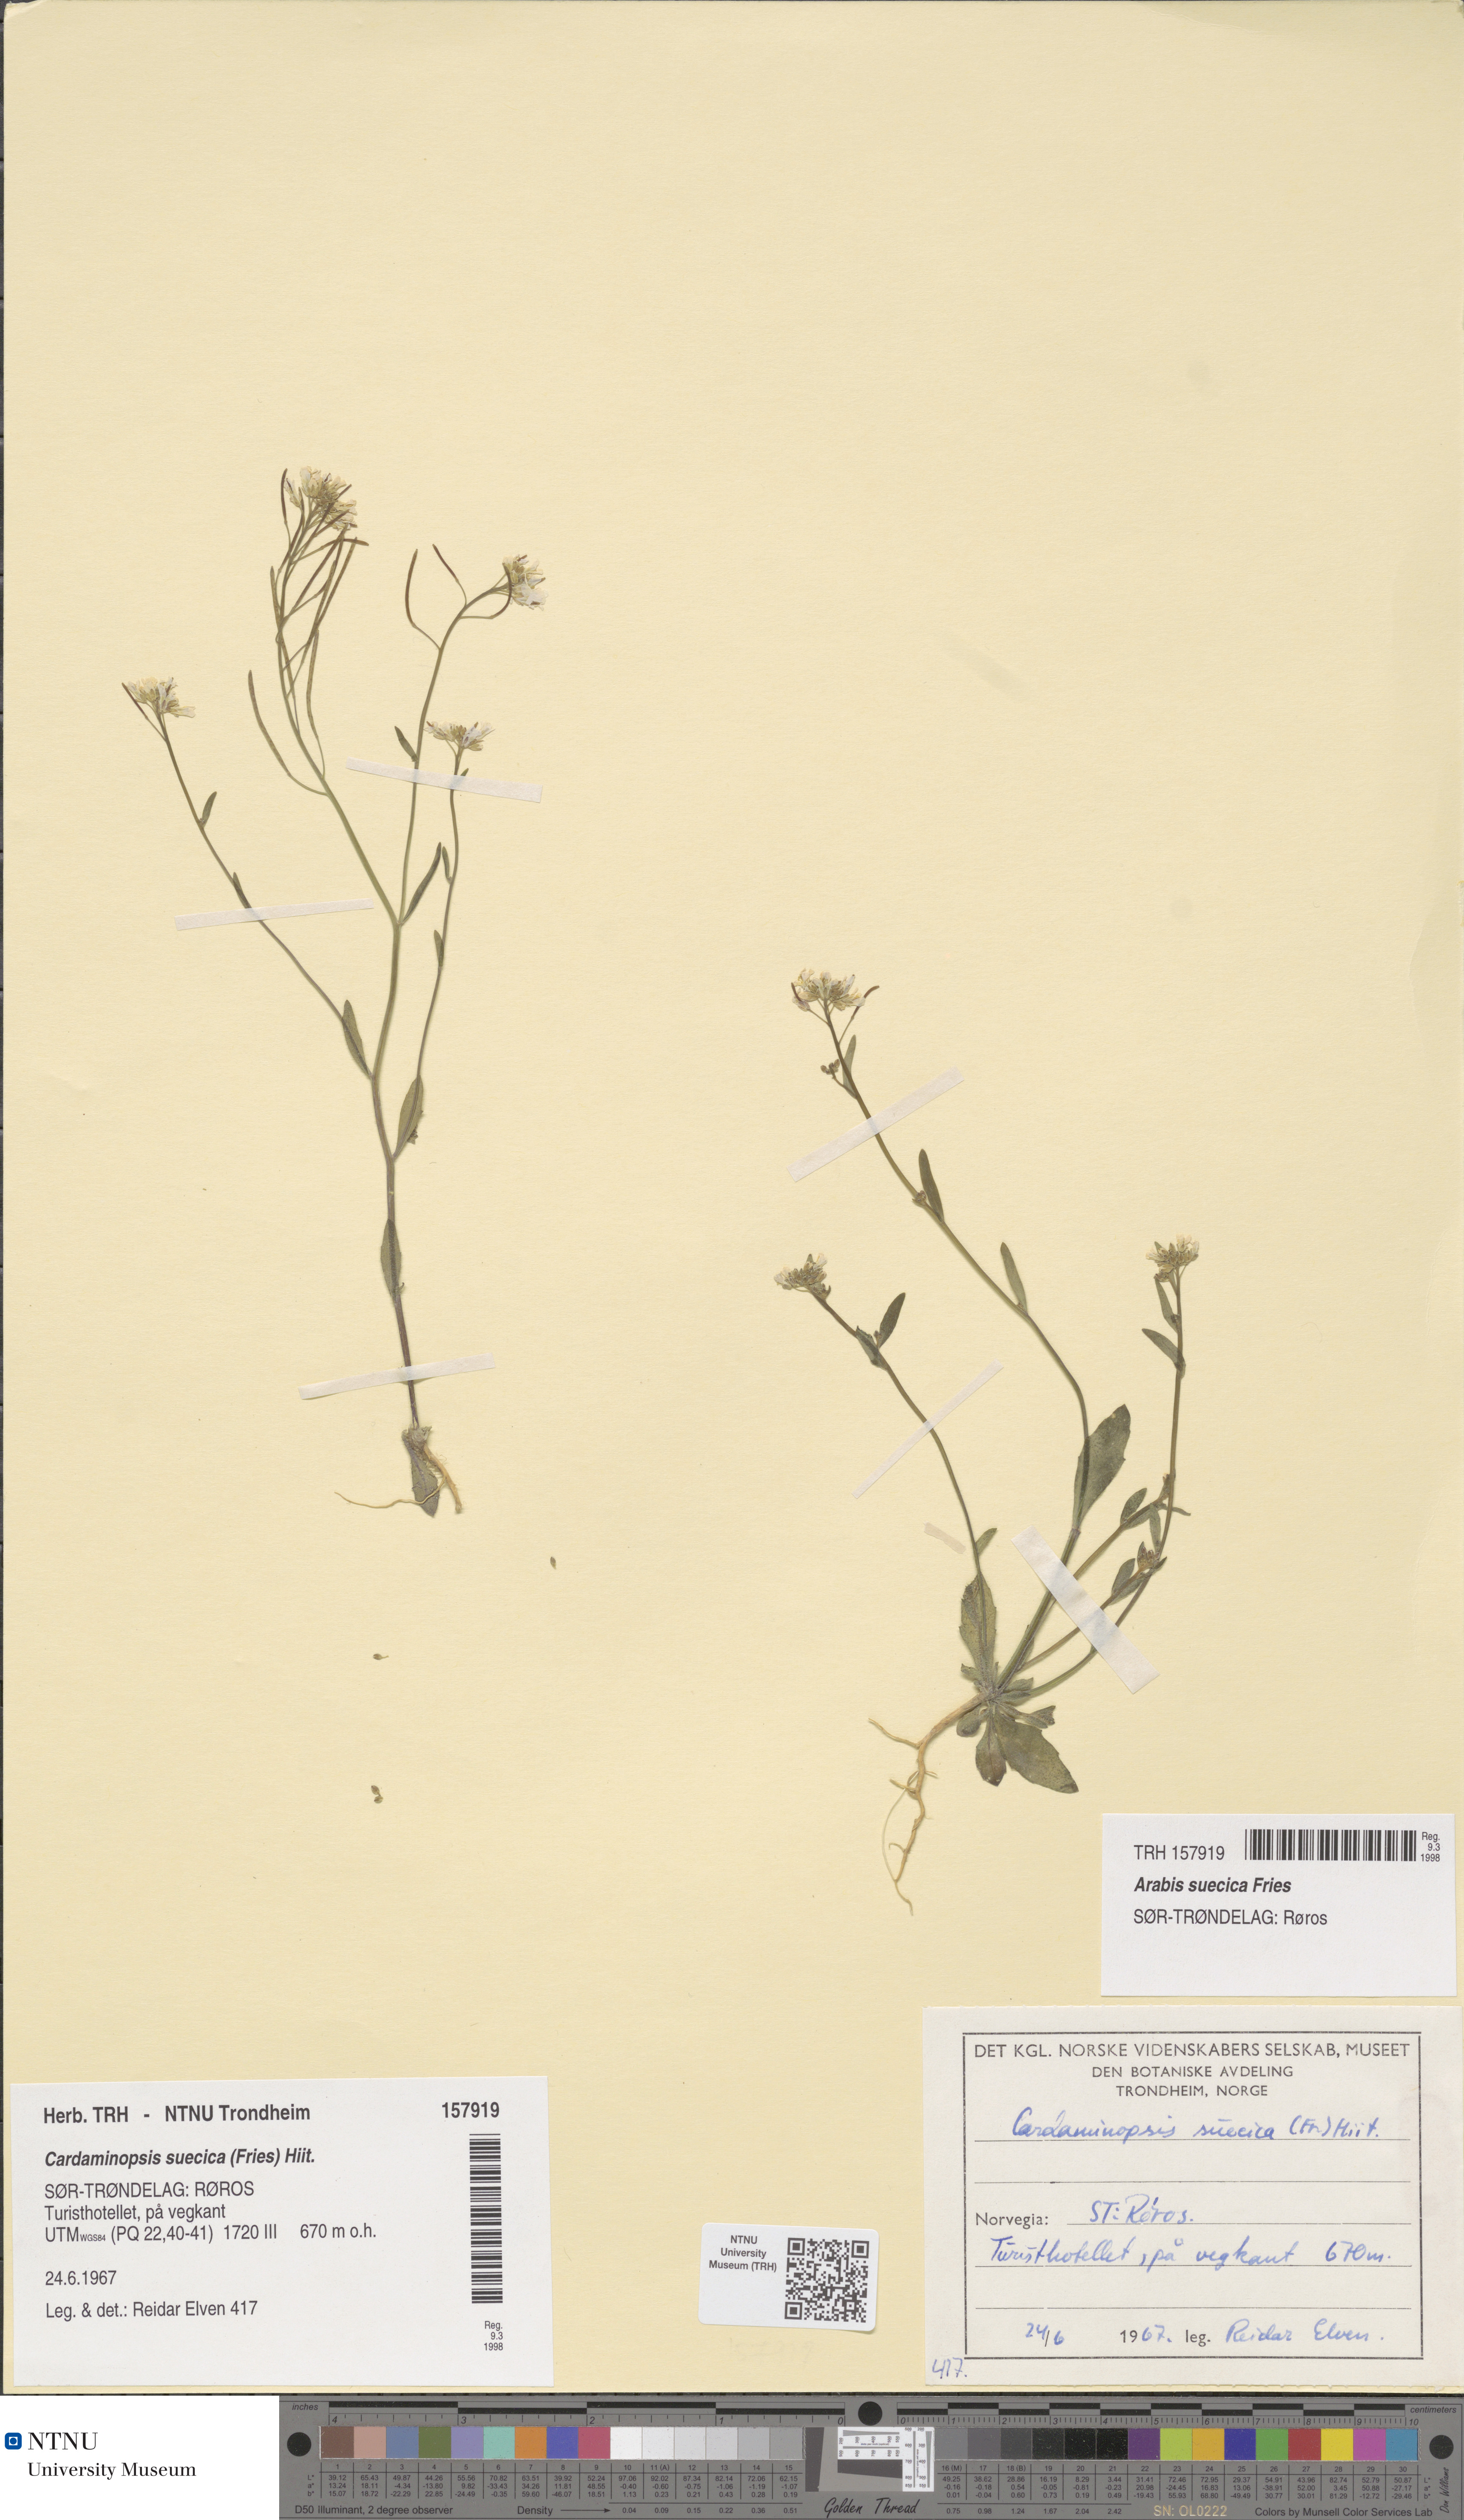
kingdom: Plantae
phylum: Tracheophyta
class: Magnoliopsida
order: Brassicales
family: Brassicaceae
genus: Arabidopsis
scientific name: Arabidopsis suecica
